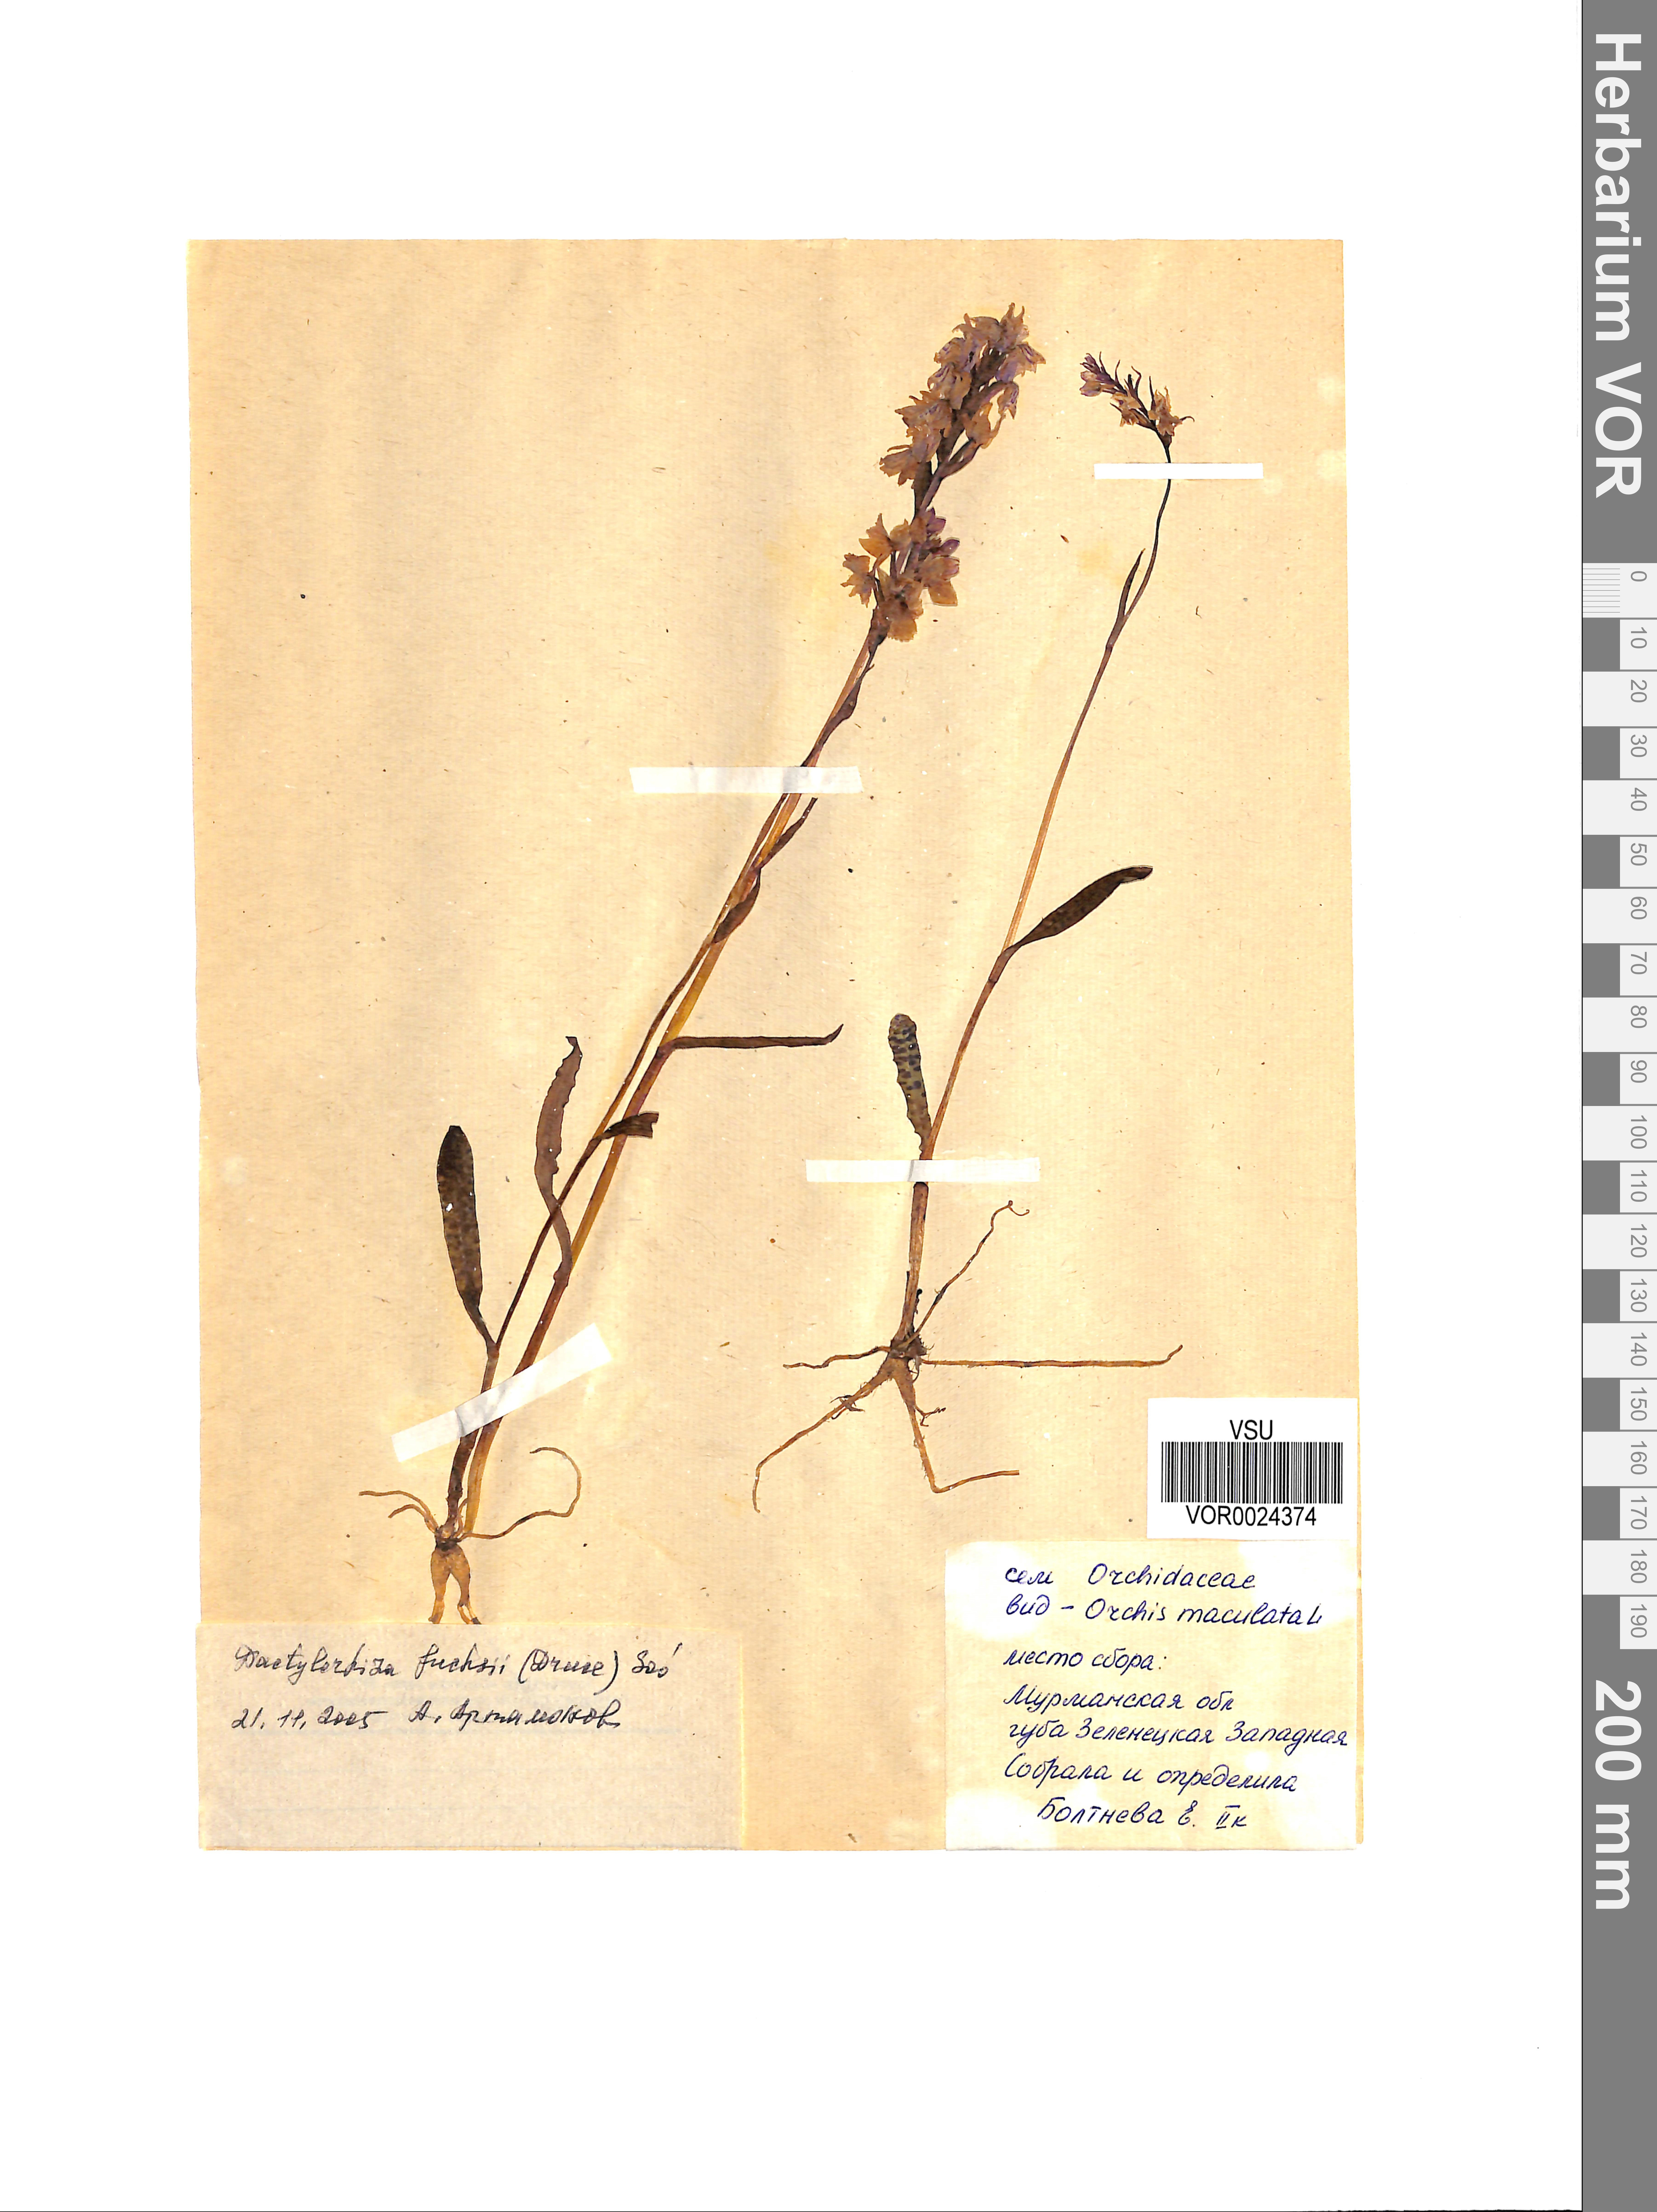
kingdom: Plantae
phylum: Tracheophyta
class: Liliopsida
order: Asparagales
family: Orchidaceae
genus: Dactylorhiza
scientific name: Dactylorhiza maculata
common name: Heath spotted-orchid
